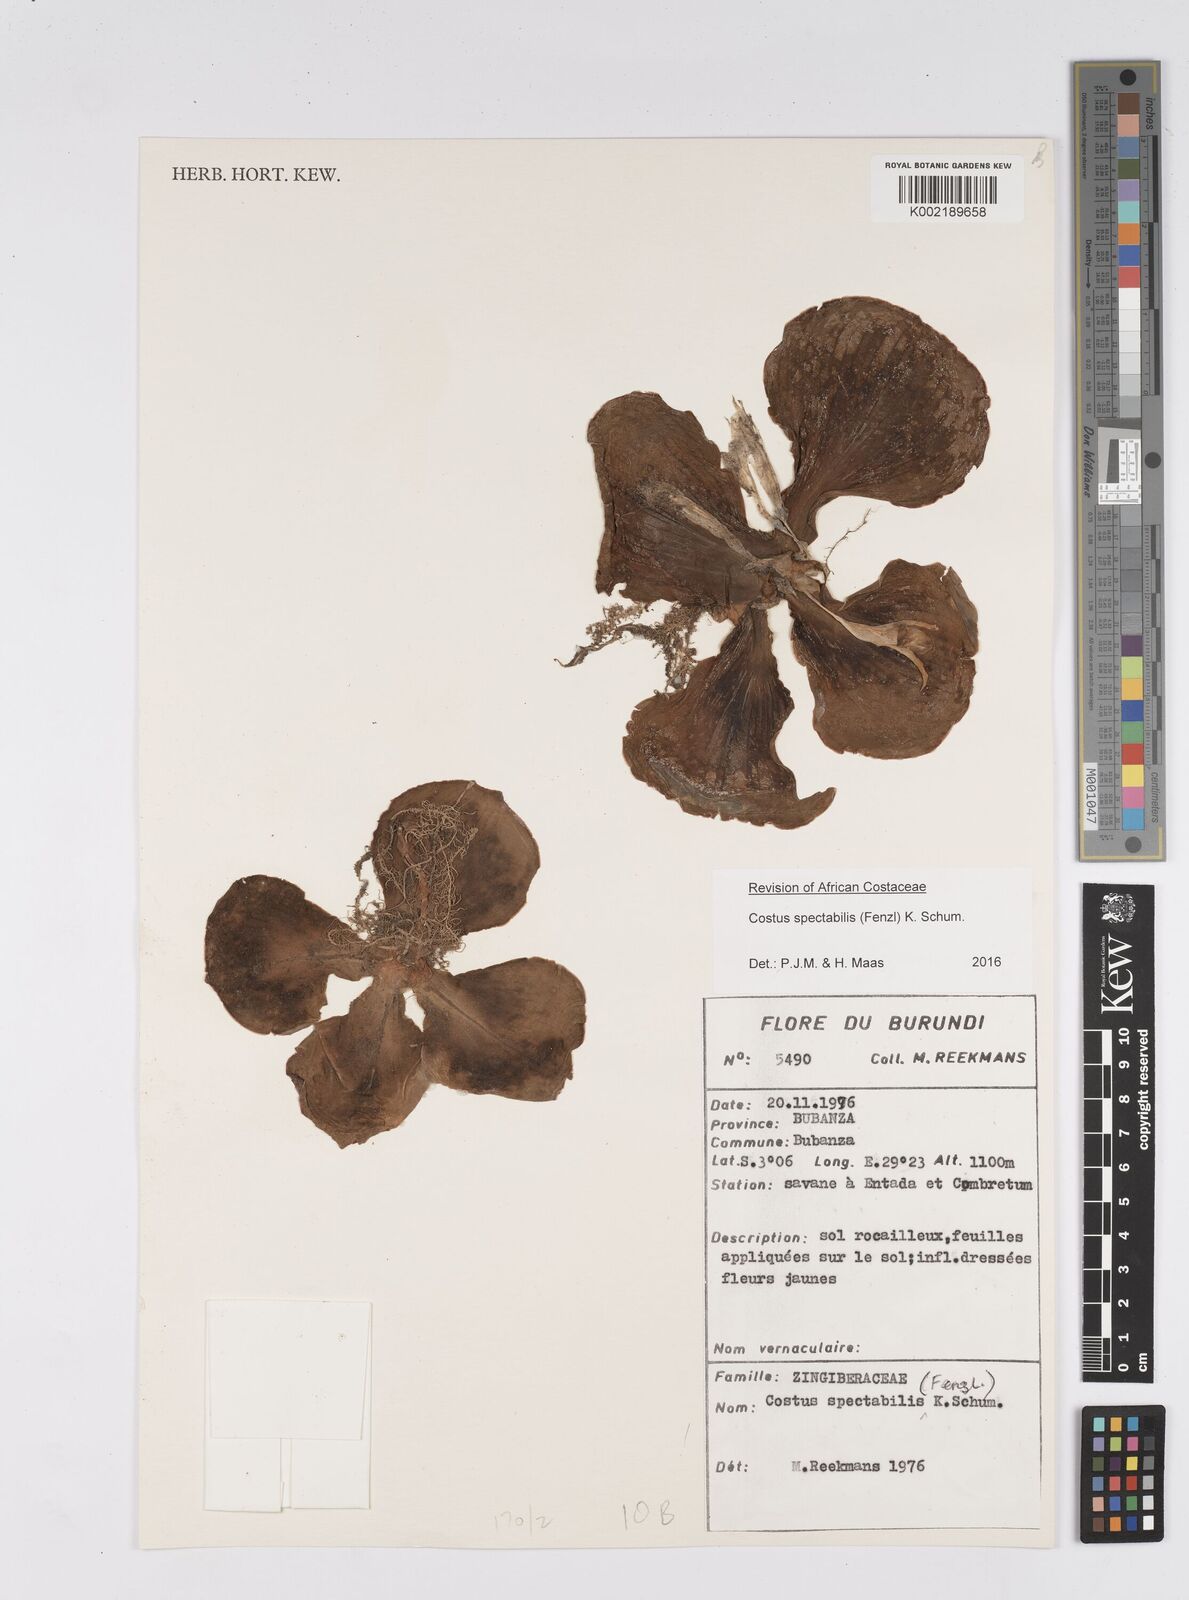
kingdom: Plantae
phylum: Tracheophyta
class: Liliopsida
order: Zingiberales
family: Costaceae
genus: Costus
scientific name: Costus spectabilis
